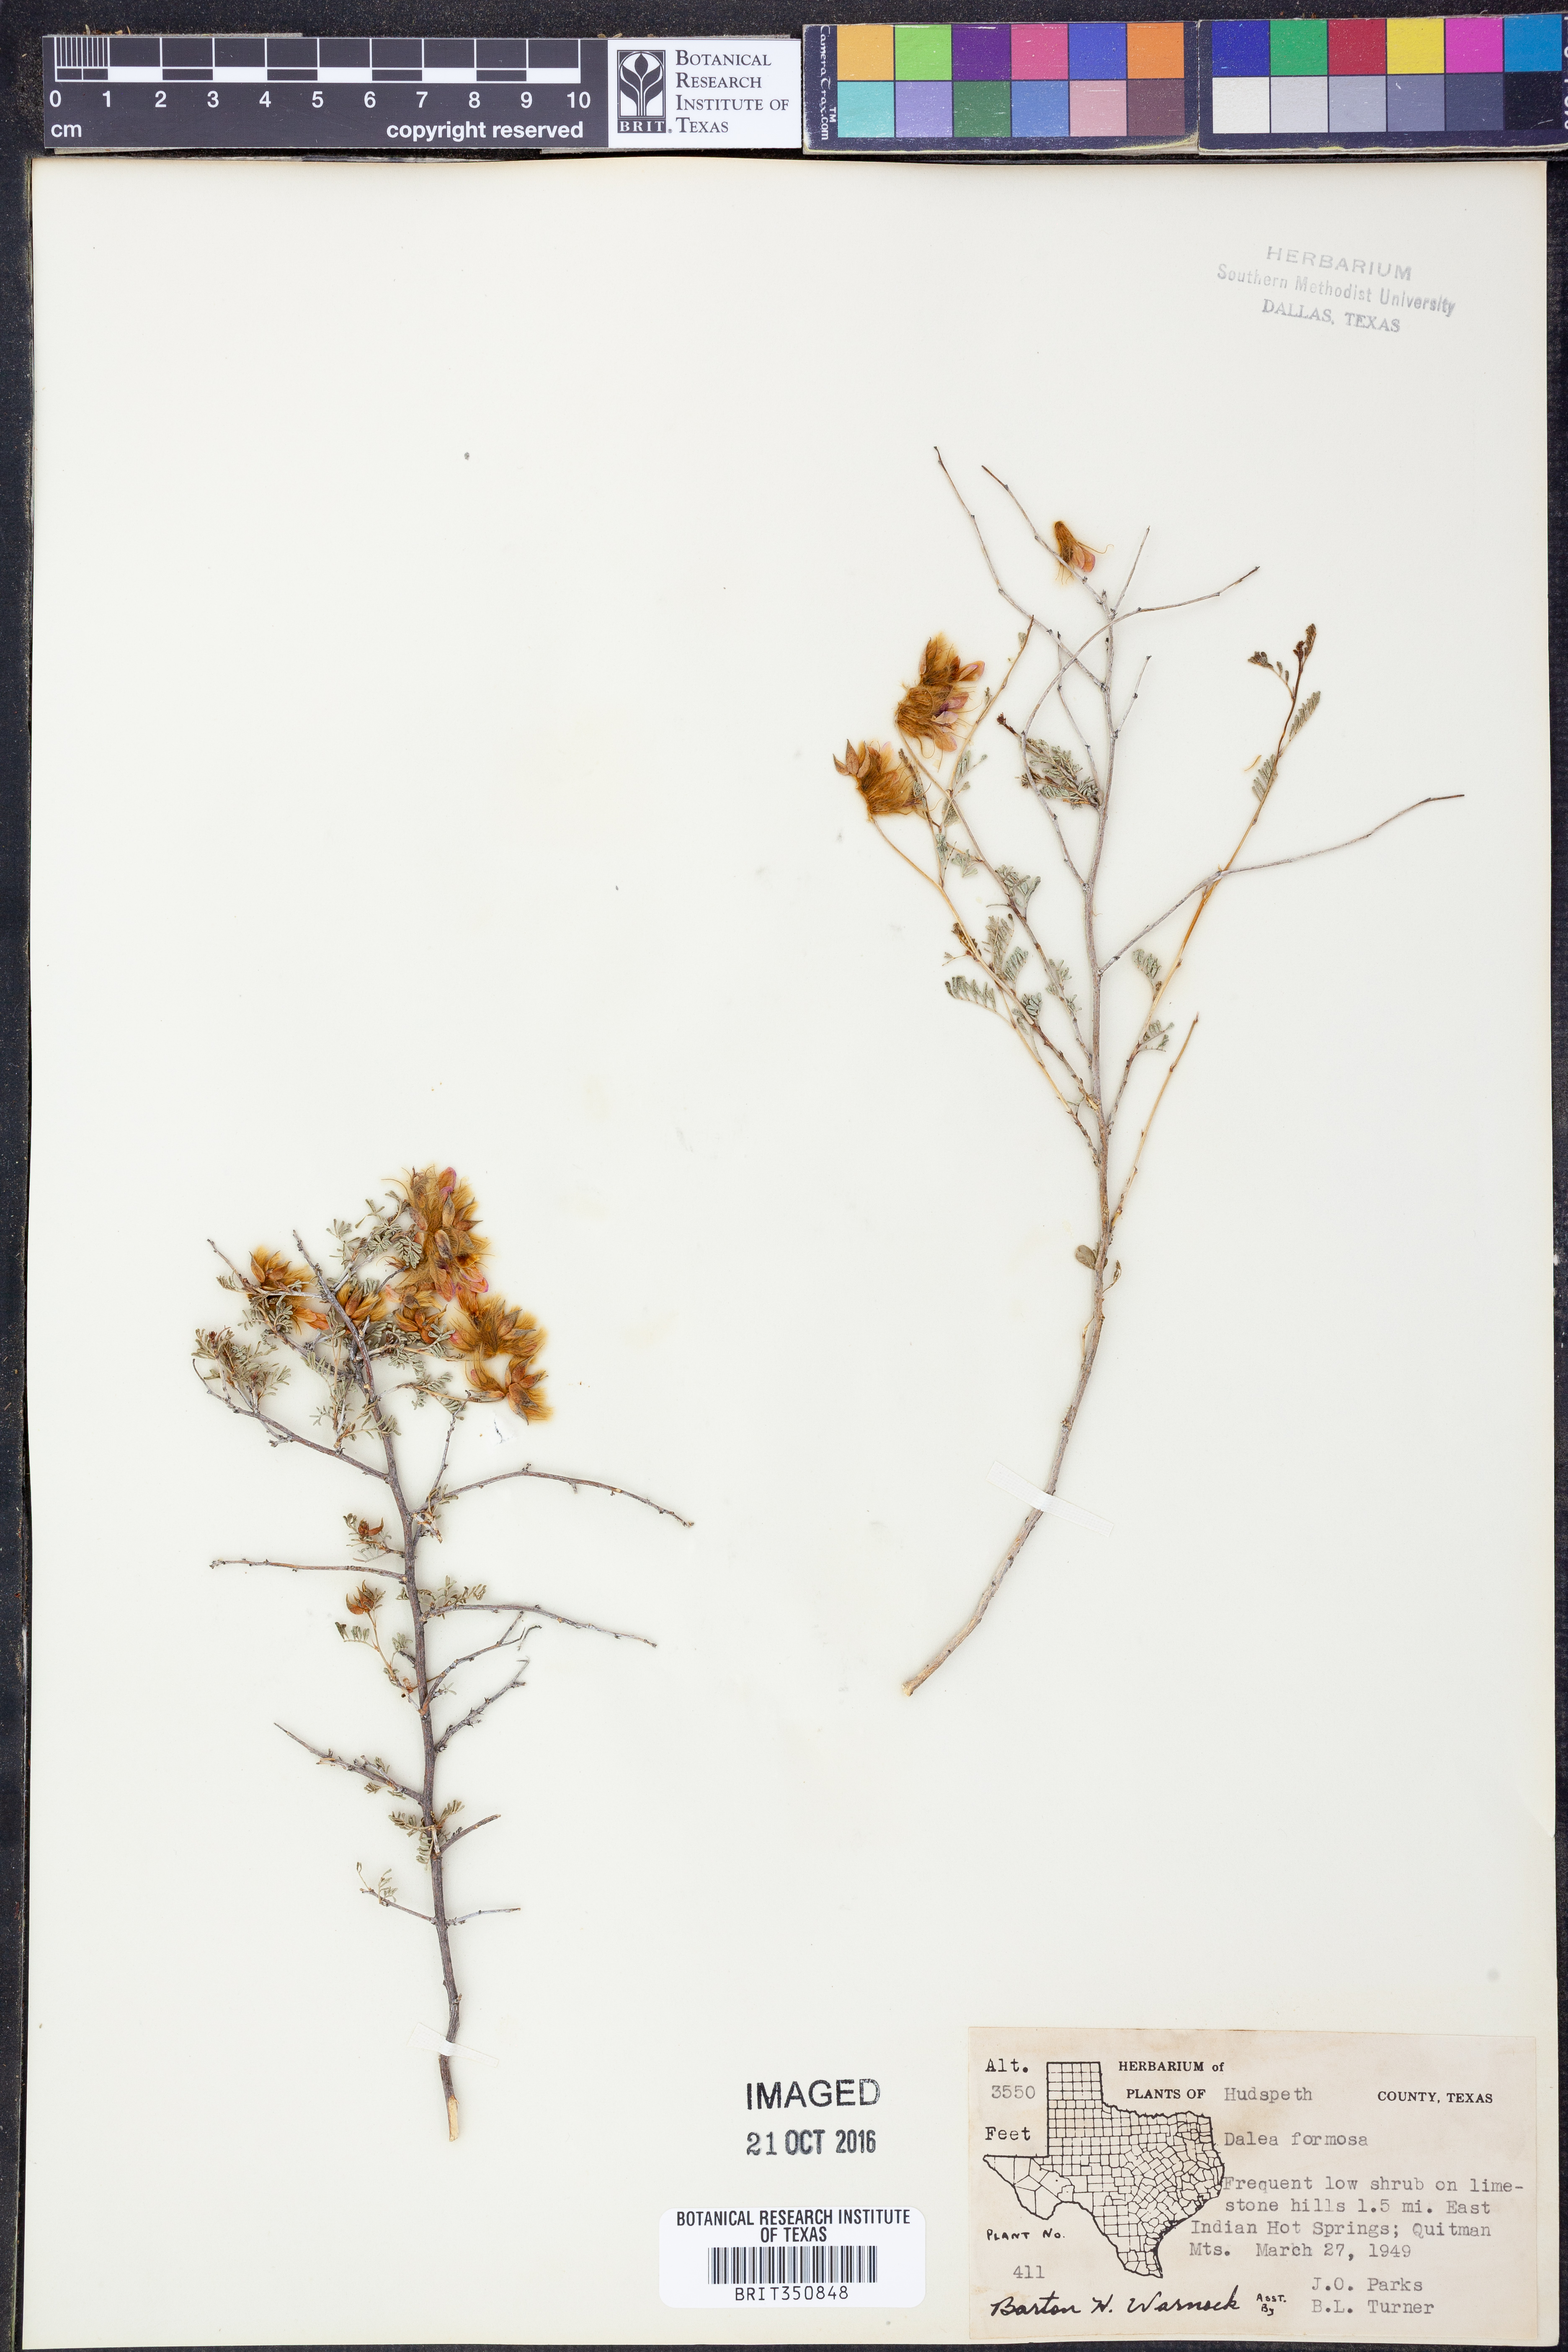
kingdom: Plantae
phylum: Tracheophyta
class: Magnoliopsida
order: Fabales
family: Fabaceae
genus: Dalea
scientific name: Dalea formosa
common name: Feather-plume dalea
